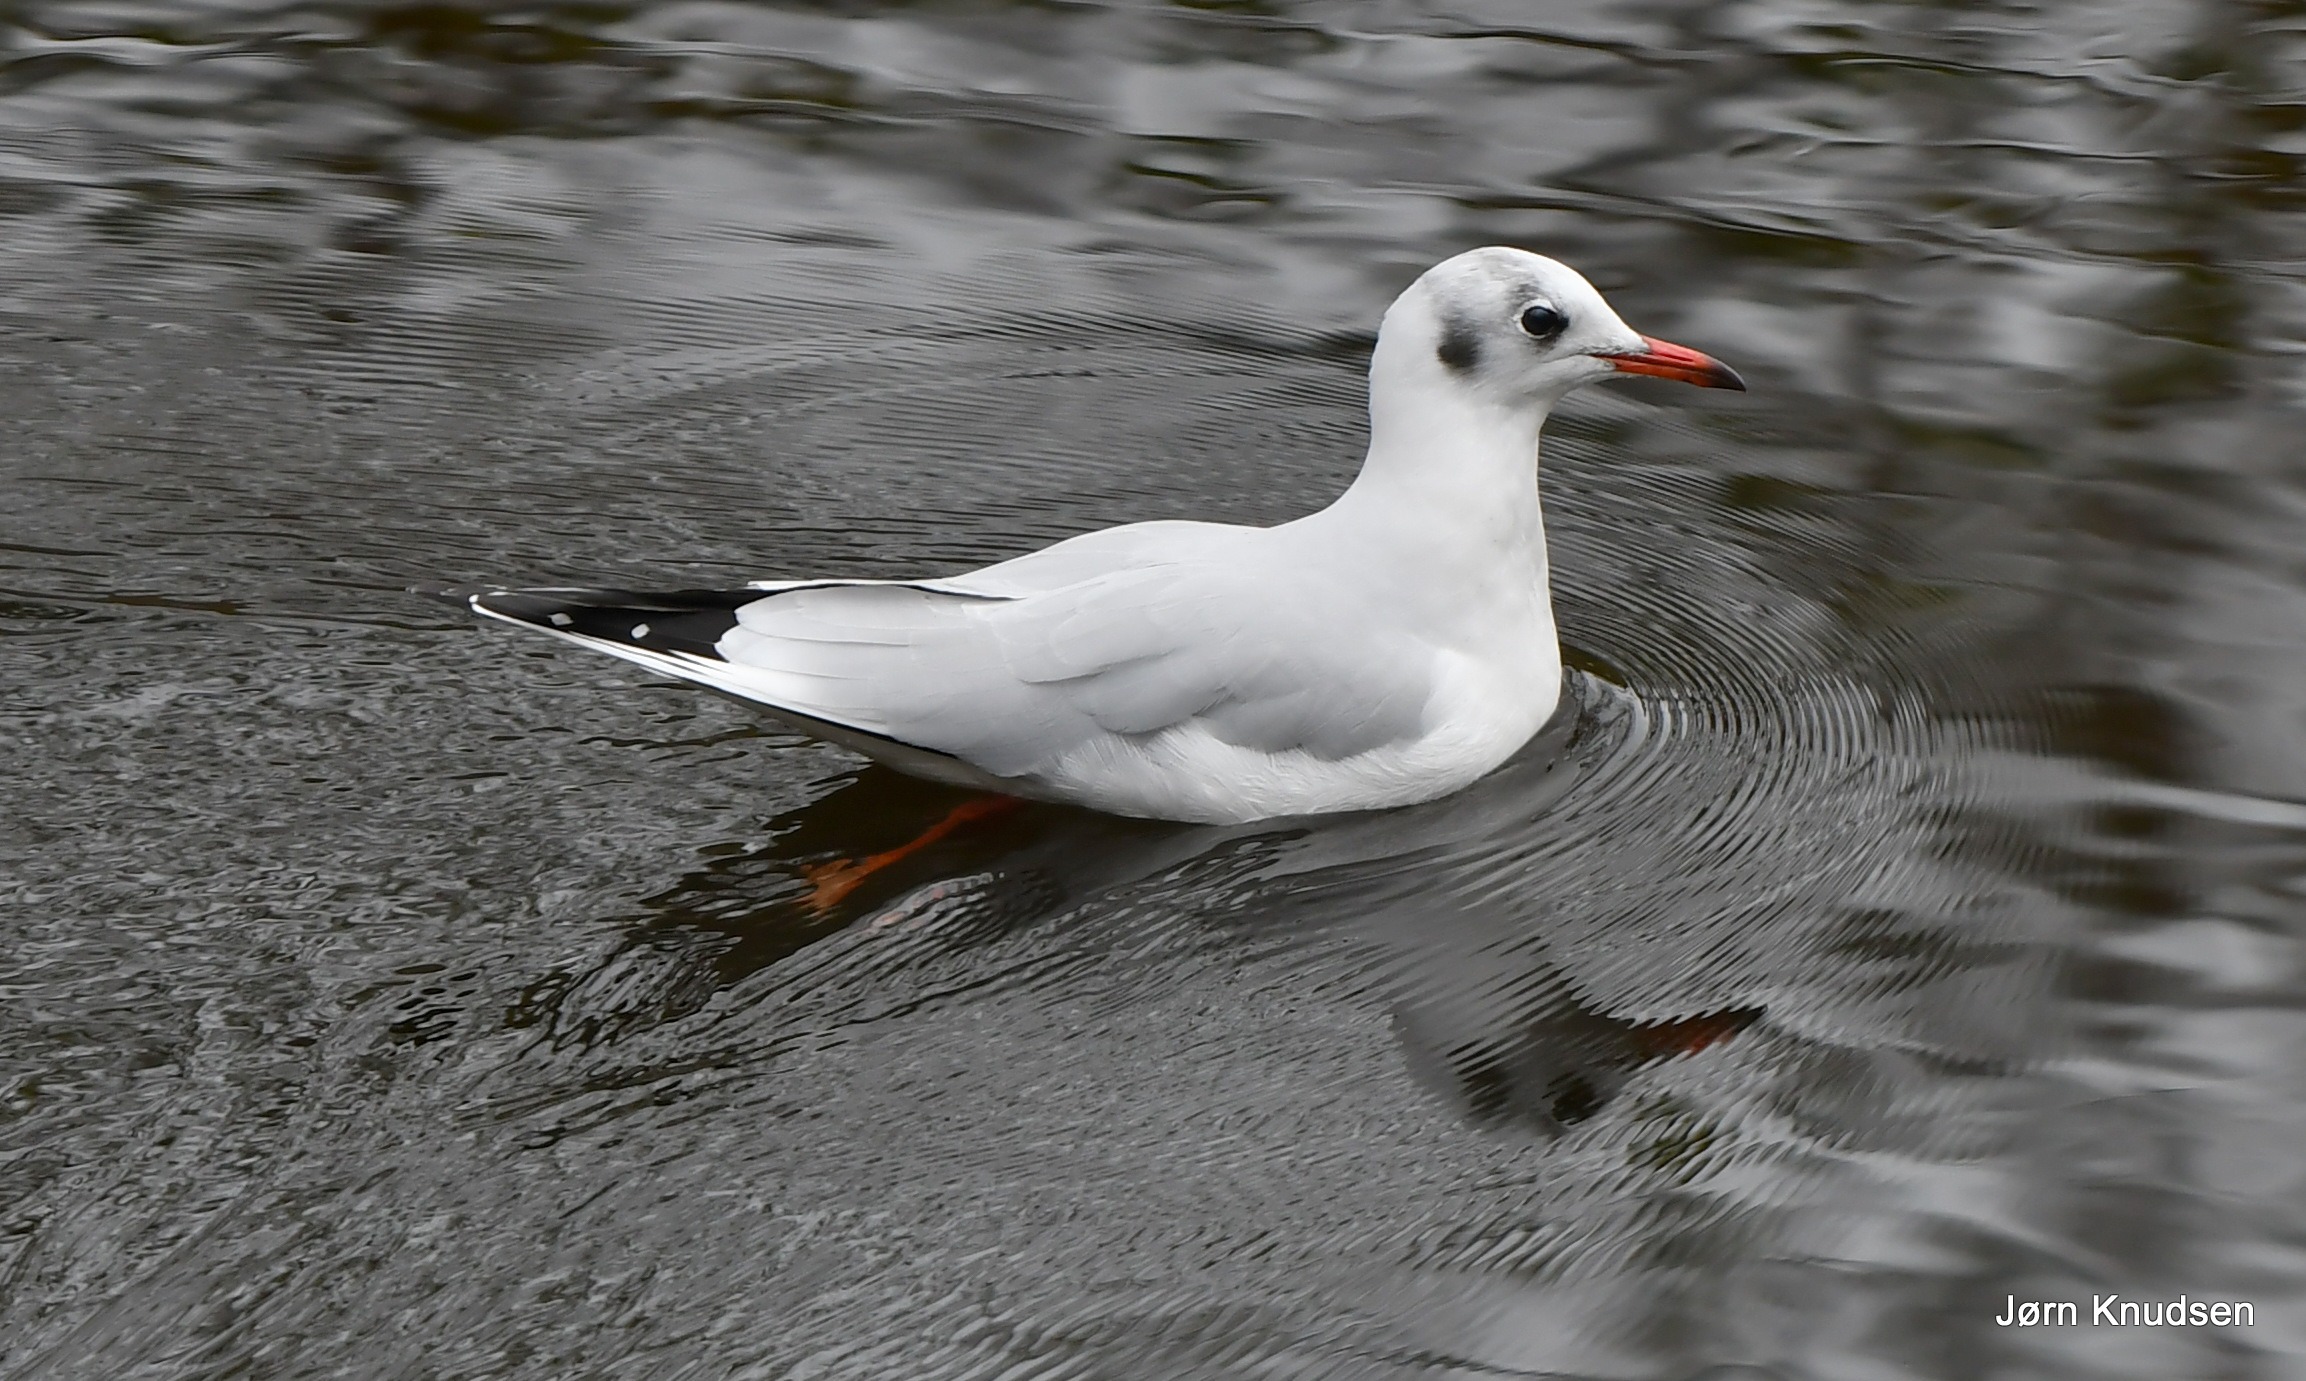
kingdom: Animalia
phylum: Chordata
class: Aves
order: Charadriiformes
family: Laridae
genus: Chroicocephalus
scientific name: Chroicocephalus ridibundus
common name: Hættemåge
